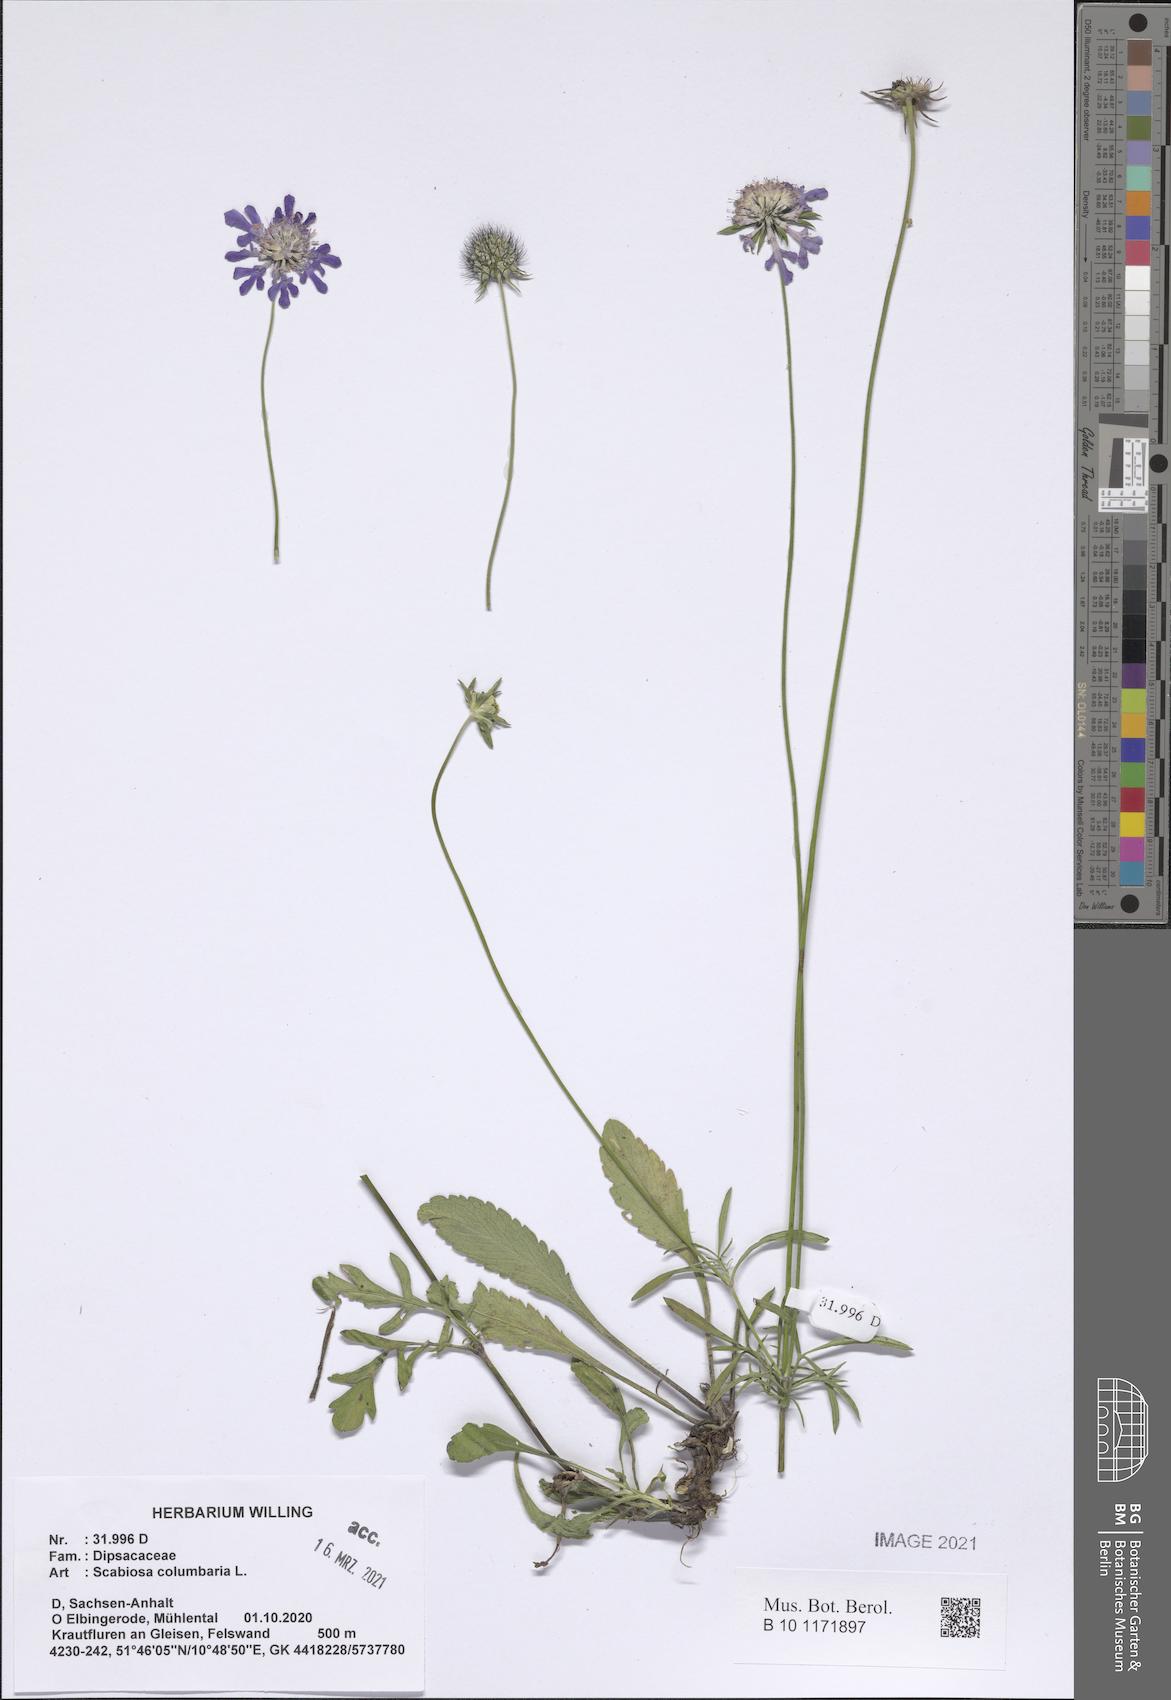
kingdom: Plantae
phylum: Tracheophyta
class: Magnoliopsida
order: Dipsacales
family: Caprifoliaceae
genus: Scabiosa
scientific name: Scabiosa columbaria
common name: Small scabious
